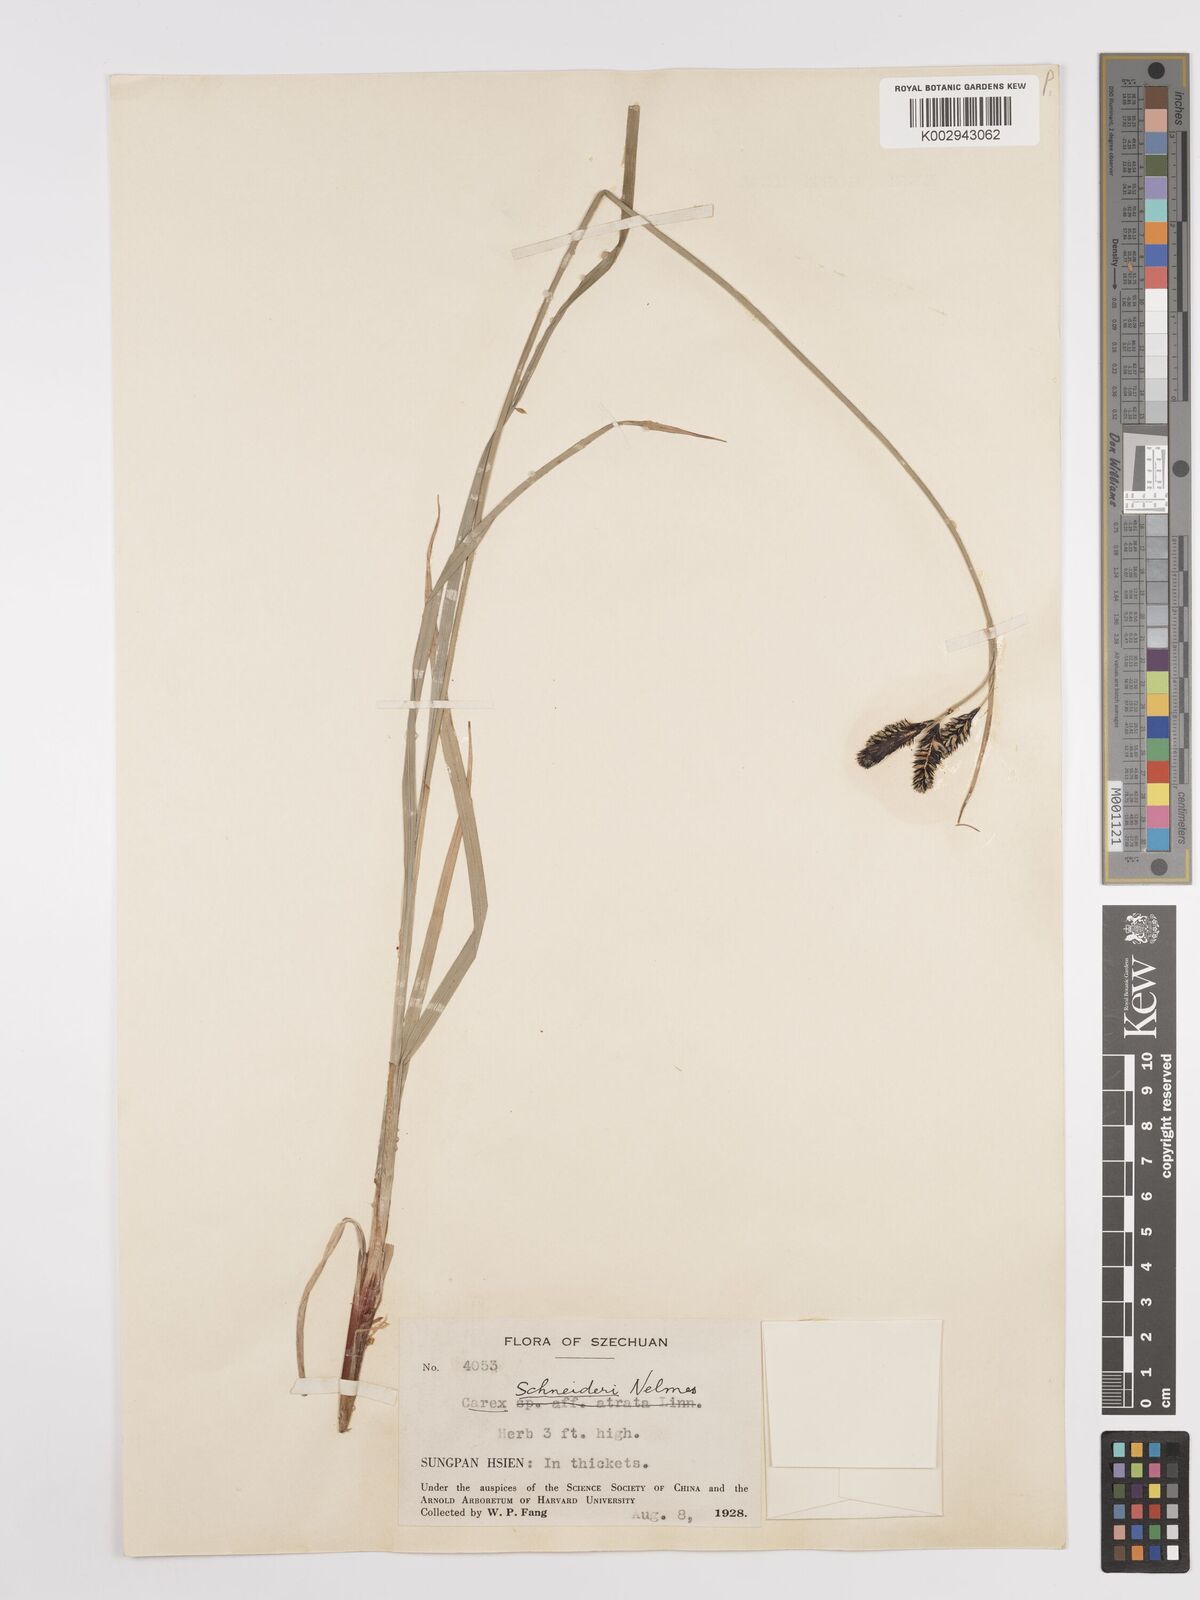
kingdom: Plantae
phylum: Tracheophyta
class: Liliopsida
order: Poales
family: Cyperaceae
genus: Carex
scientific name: Carex schneideri
